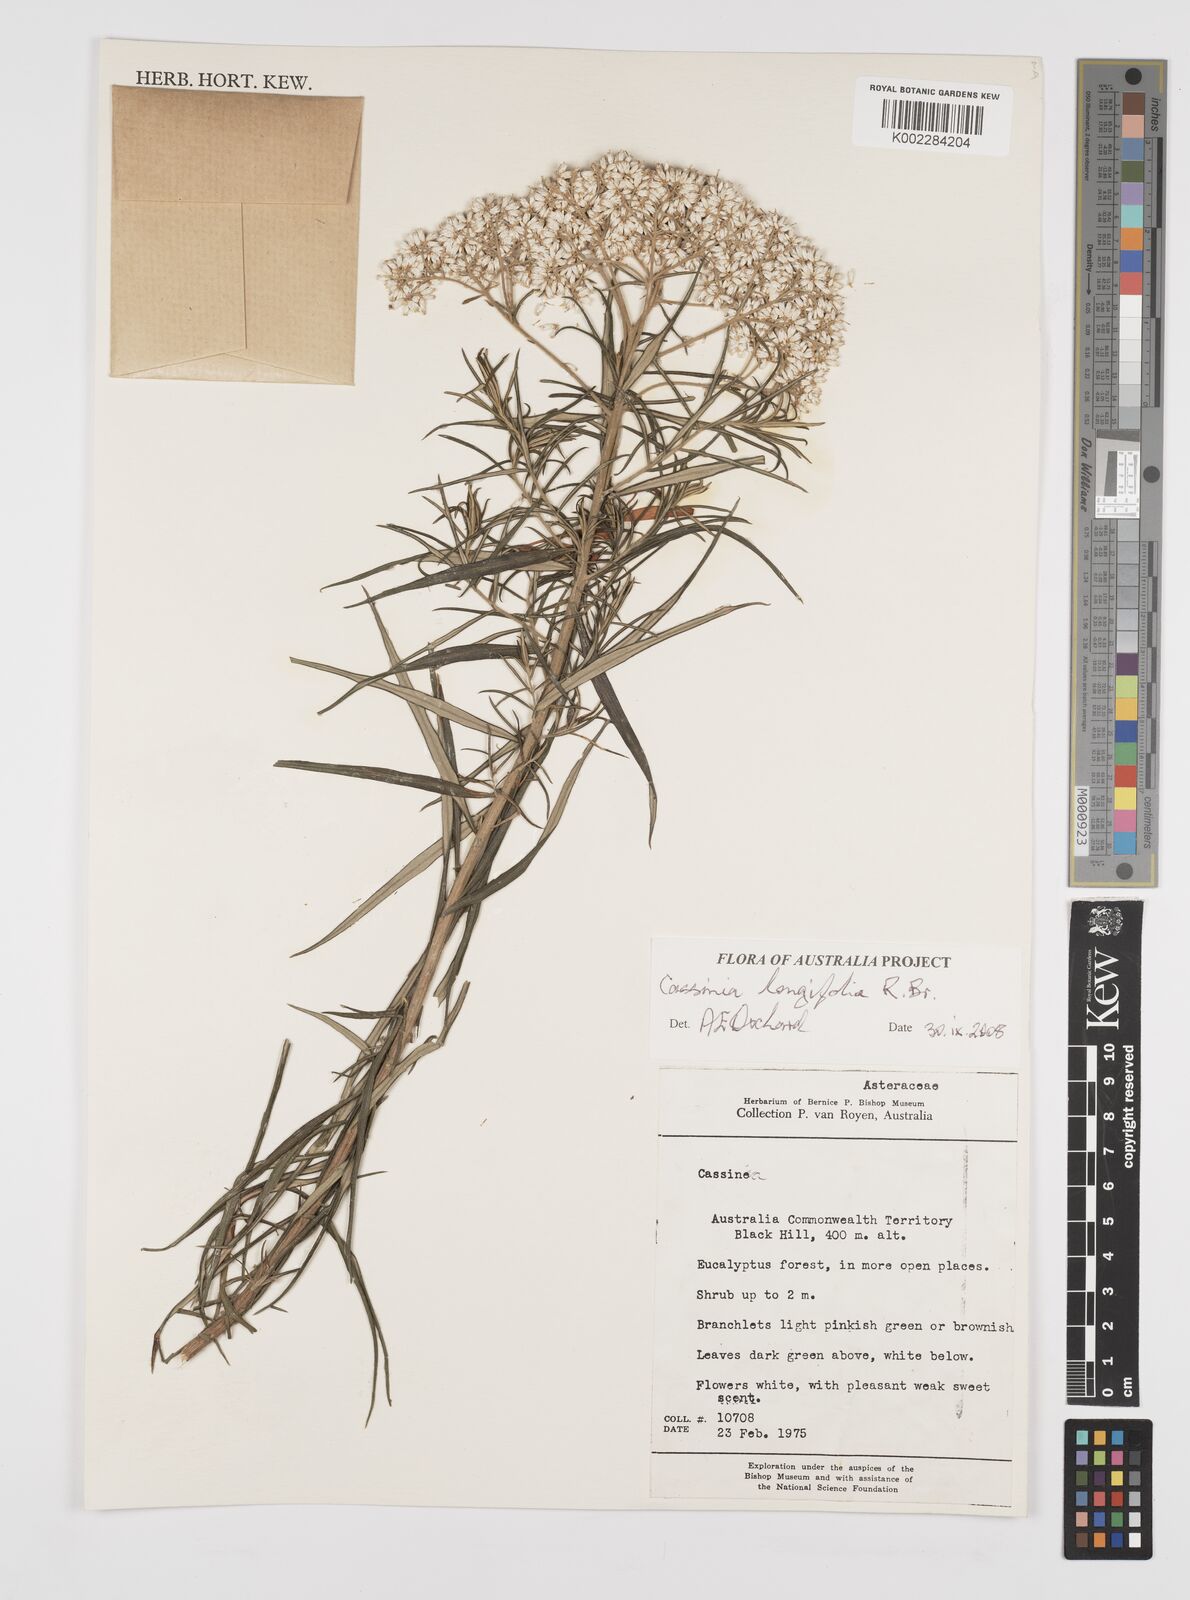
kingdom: Plantae
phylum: Tracheophyta
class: Magnoliopsida
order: Asterales
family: Asteraceae
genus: Cassinia
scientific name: Cassinia longifolia
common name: Longleaf-dogwood
